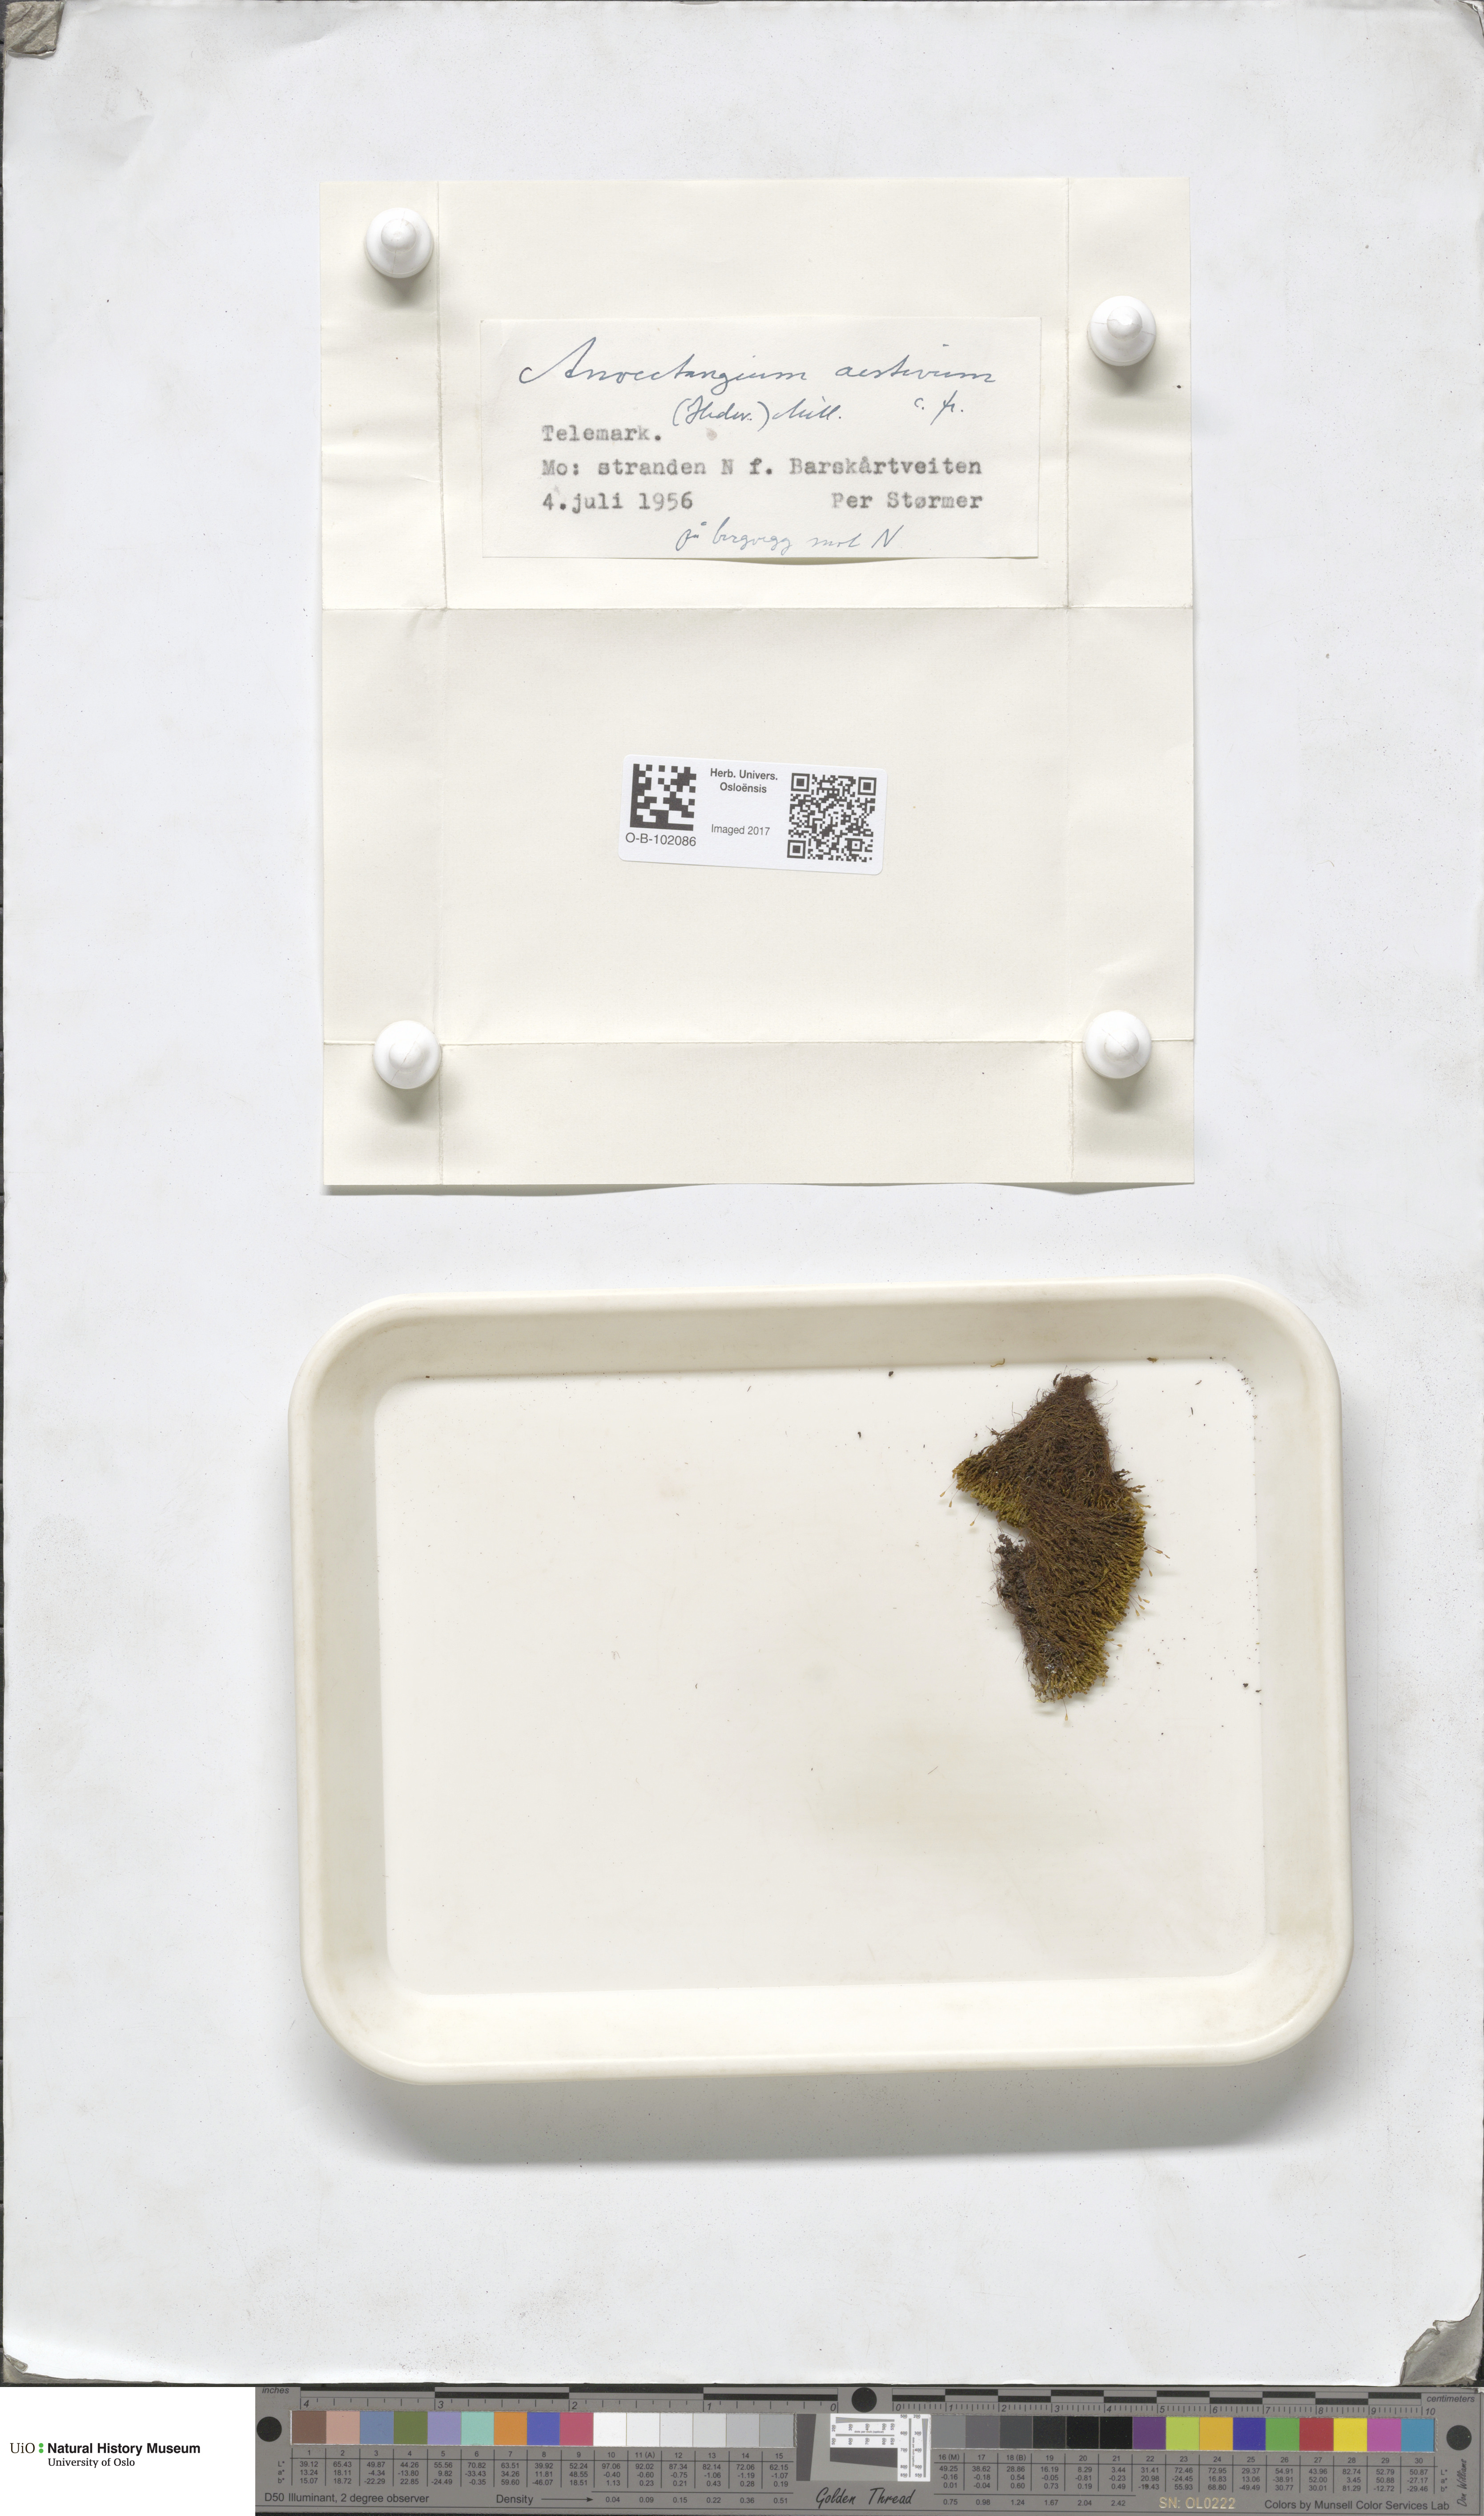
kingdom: Plantae
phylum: Bryophyta
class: Bryopsida
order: Pottiales
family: Pottiaceae
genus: Anoectangium
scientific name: Anoectangium aestivum
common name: Summer-moss
